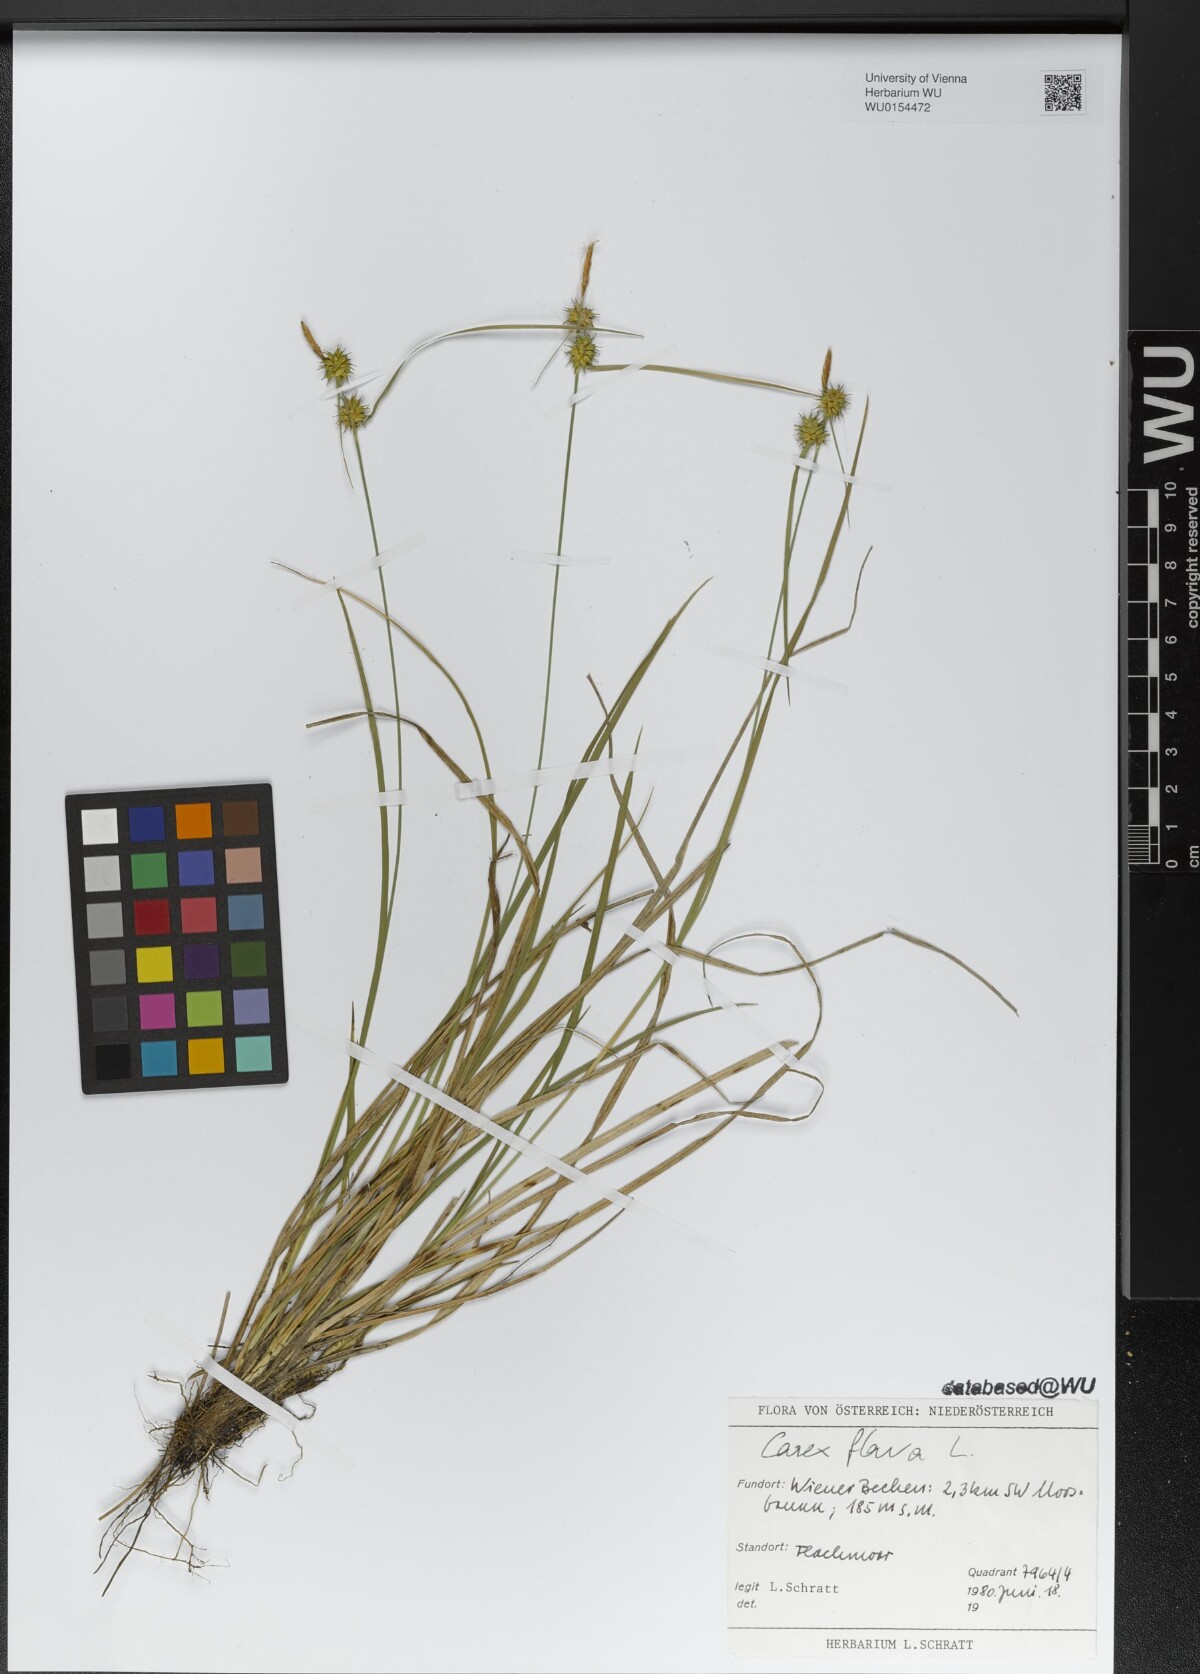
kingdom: Plantae
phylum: Tracheophyta
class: Liliopsida
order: Poales
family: Cyperaceae
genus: Carex
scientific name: Carex flava
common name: Large yellow-sedge
